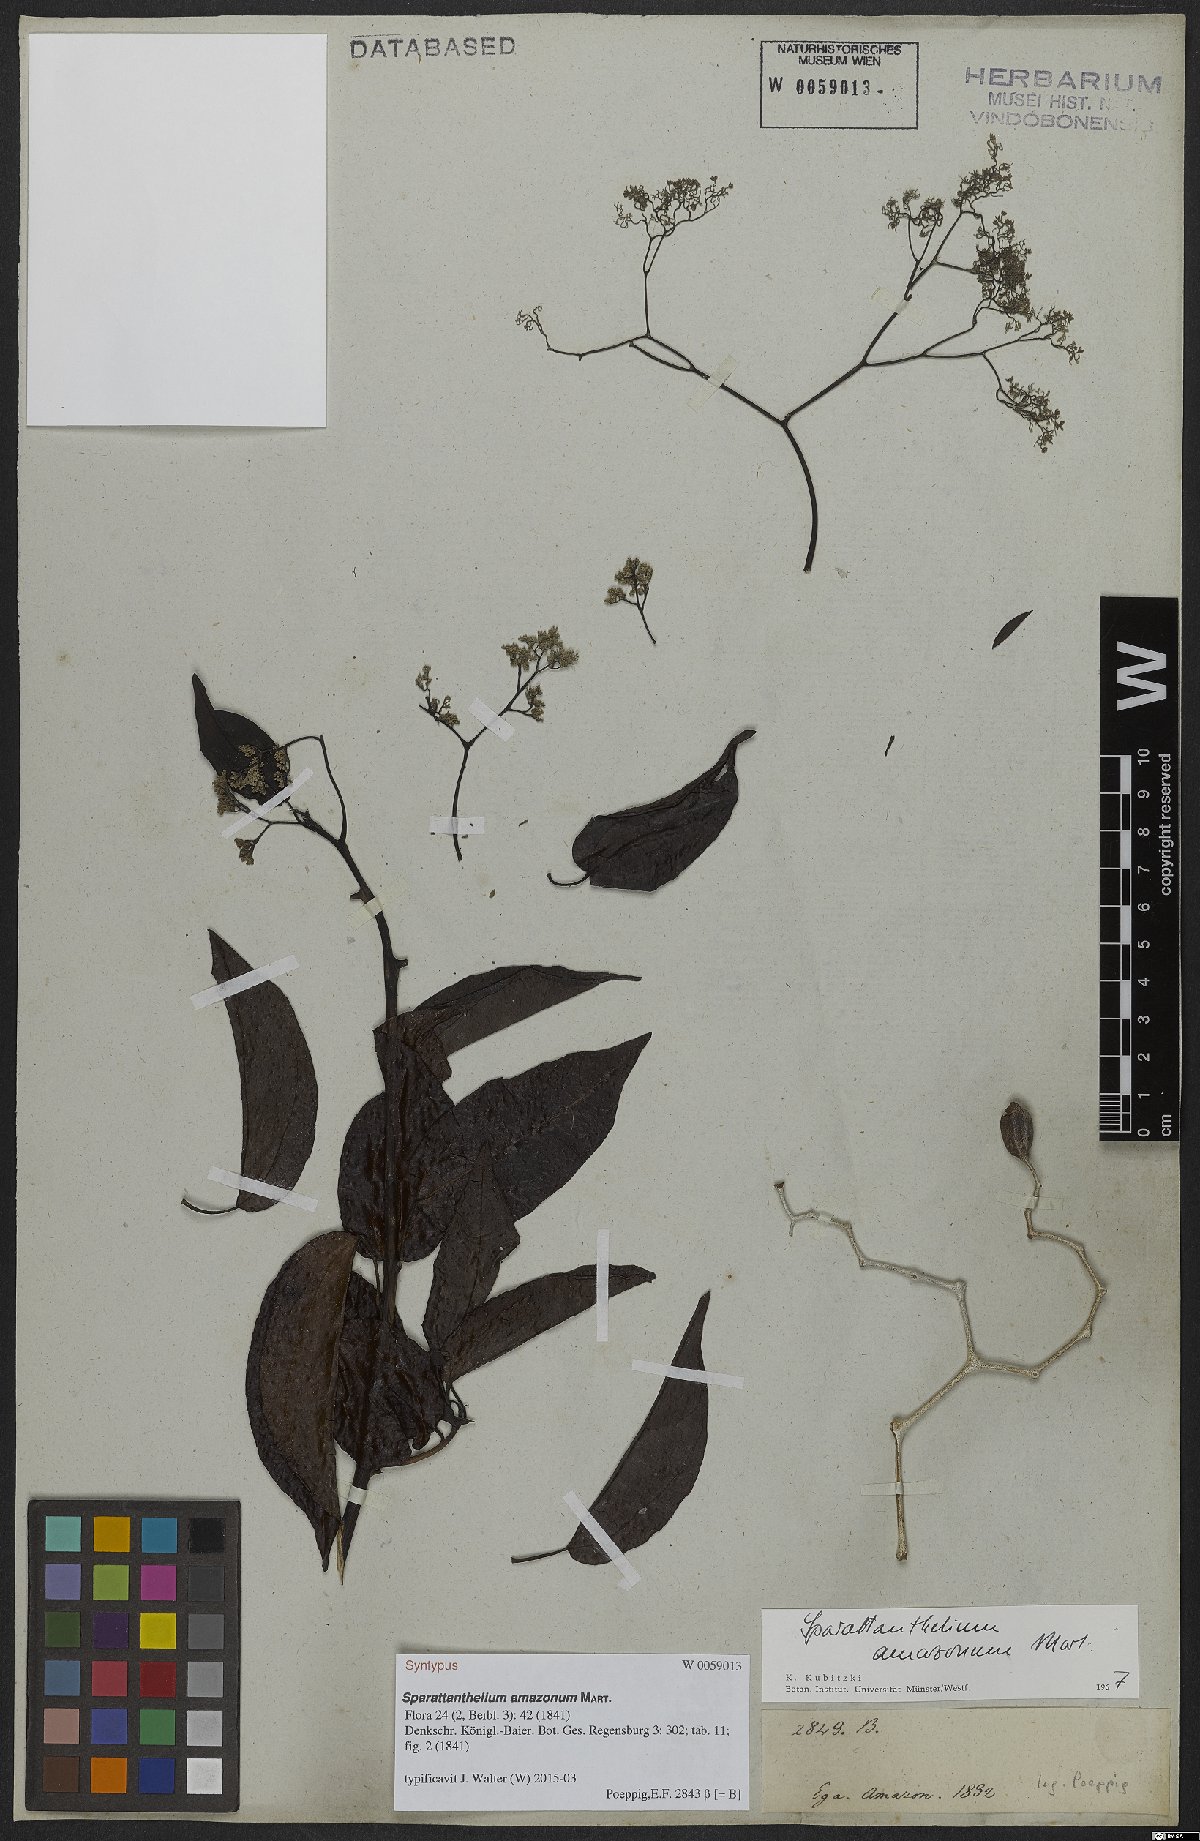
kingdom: Plantae
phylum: Tracheophyta
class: Magnoliopsida
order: Laurales
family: Hernandiaceae
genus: Sparattanthelium
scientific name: Sparattanthelium amazonum
